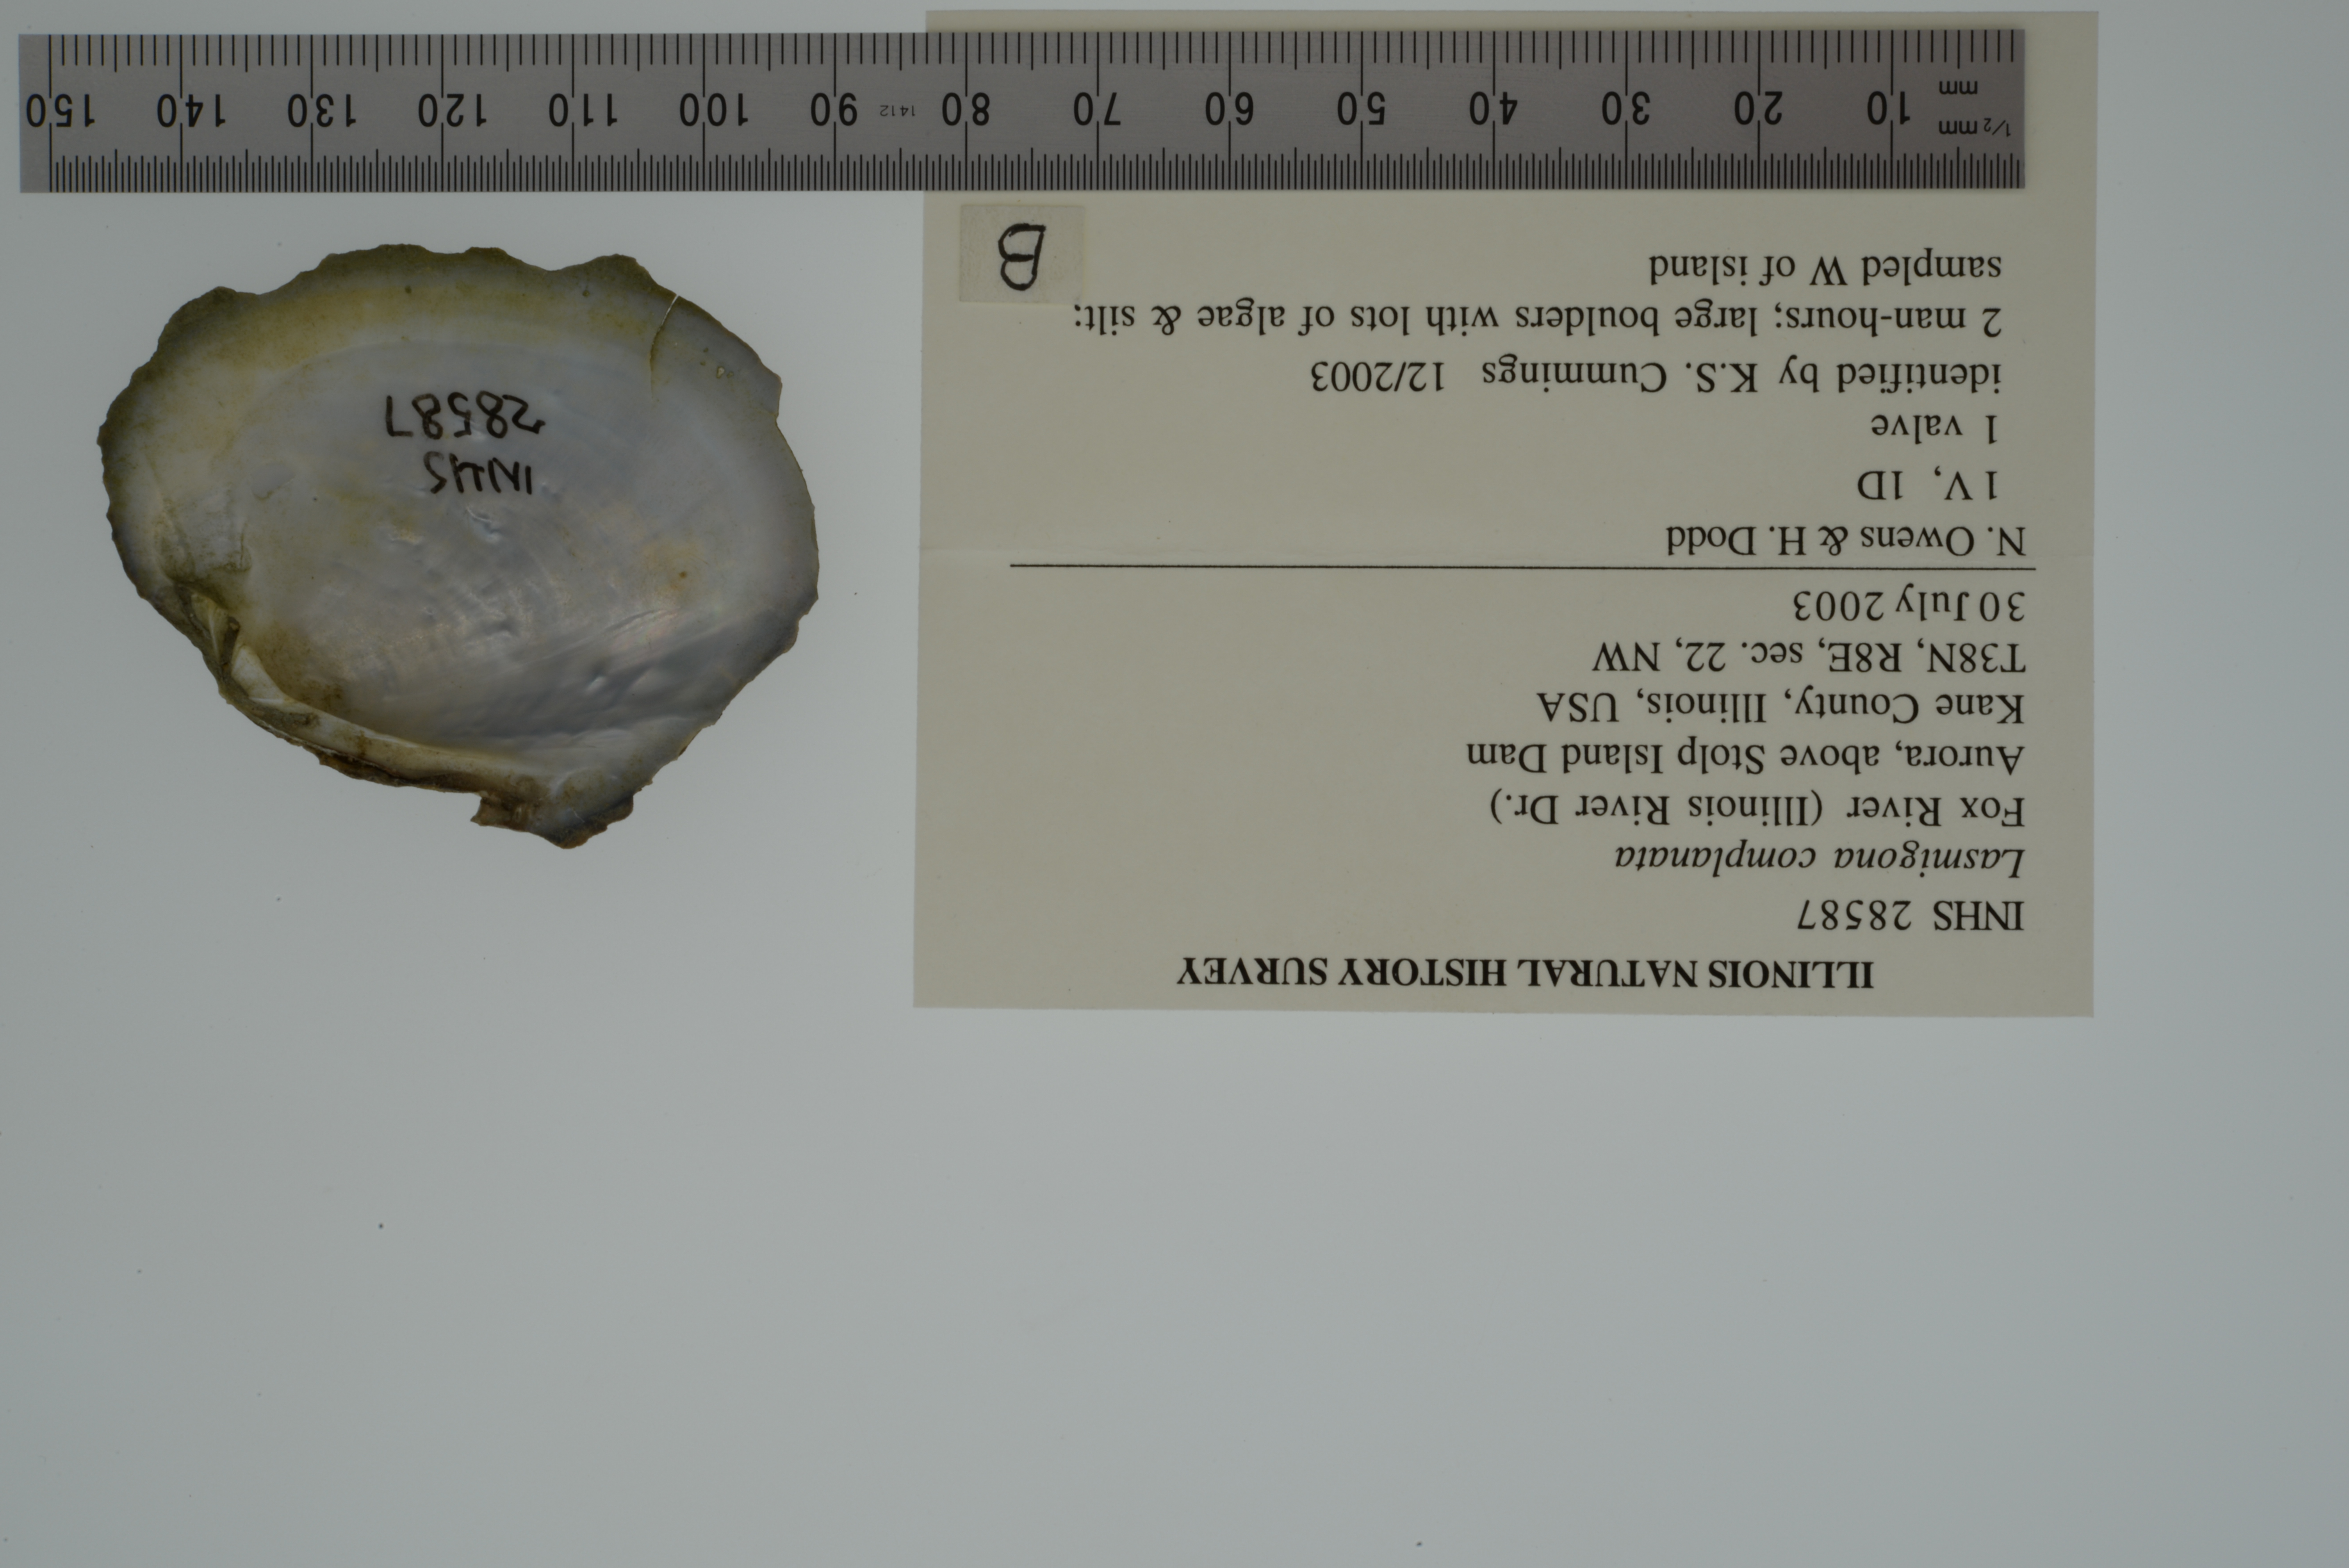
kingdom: Animalia
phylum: Mollusca
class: Bivalvia
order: Unionida
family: Unionidae
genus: Lasmigona
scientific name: Lasmigona complanata
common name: White heelsplitter
